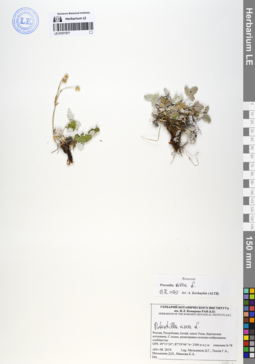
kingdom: Plantae
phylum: Tracheophyta
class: Magnoliopsida
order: Rosales
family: Rosaceae
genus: Potentilla
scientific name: Potentilla nivea
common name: Snow cinquefoil
